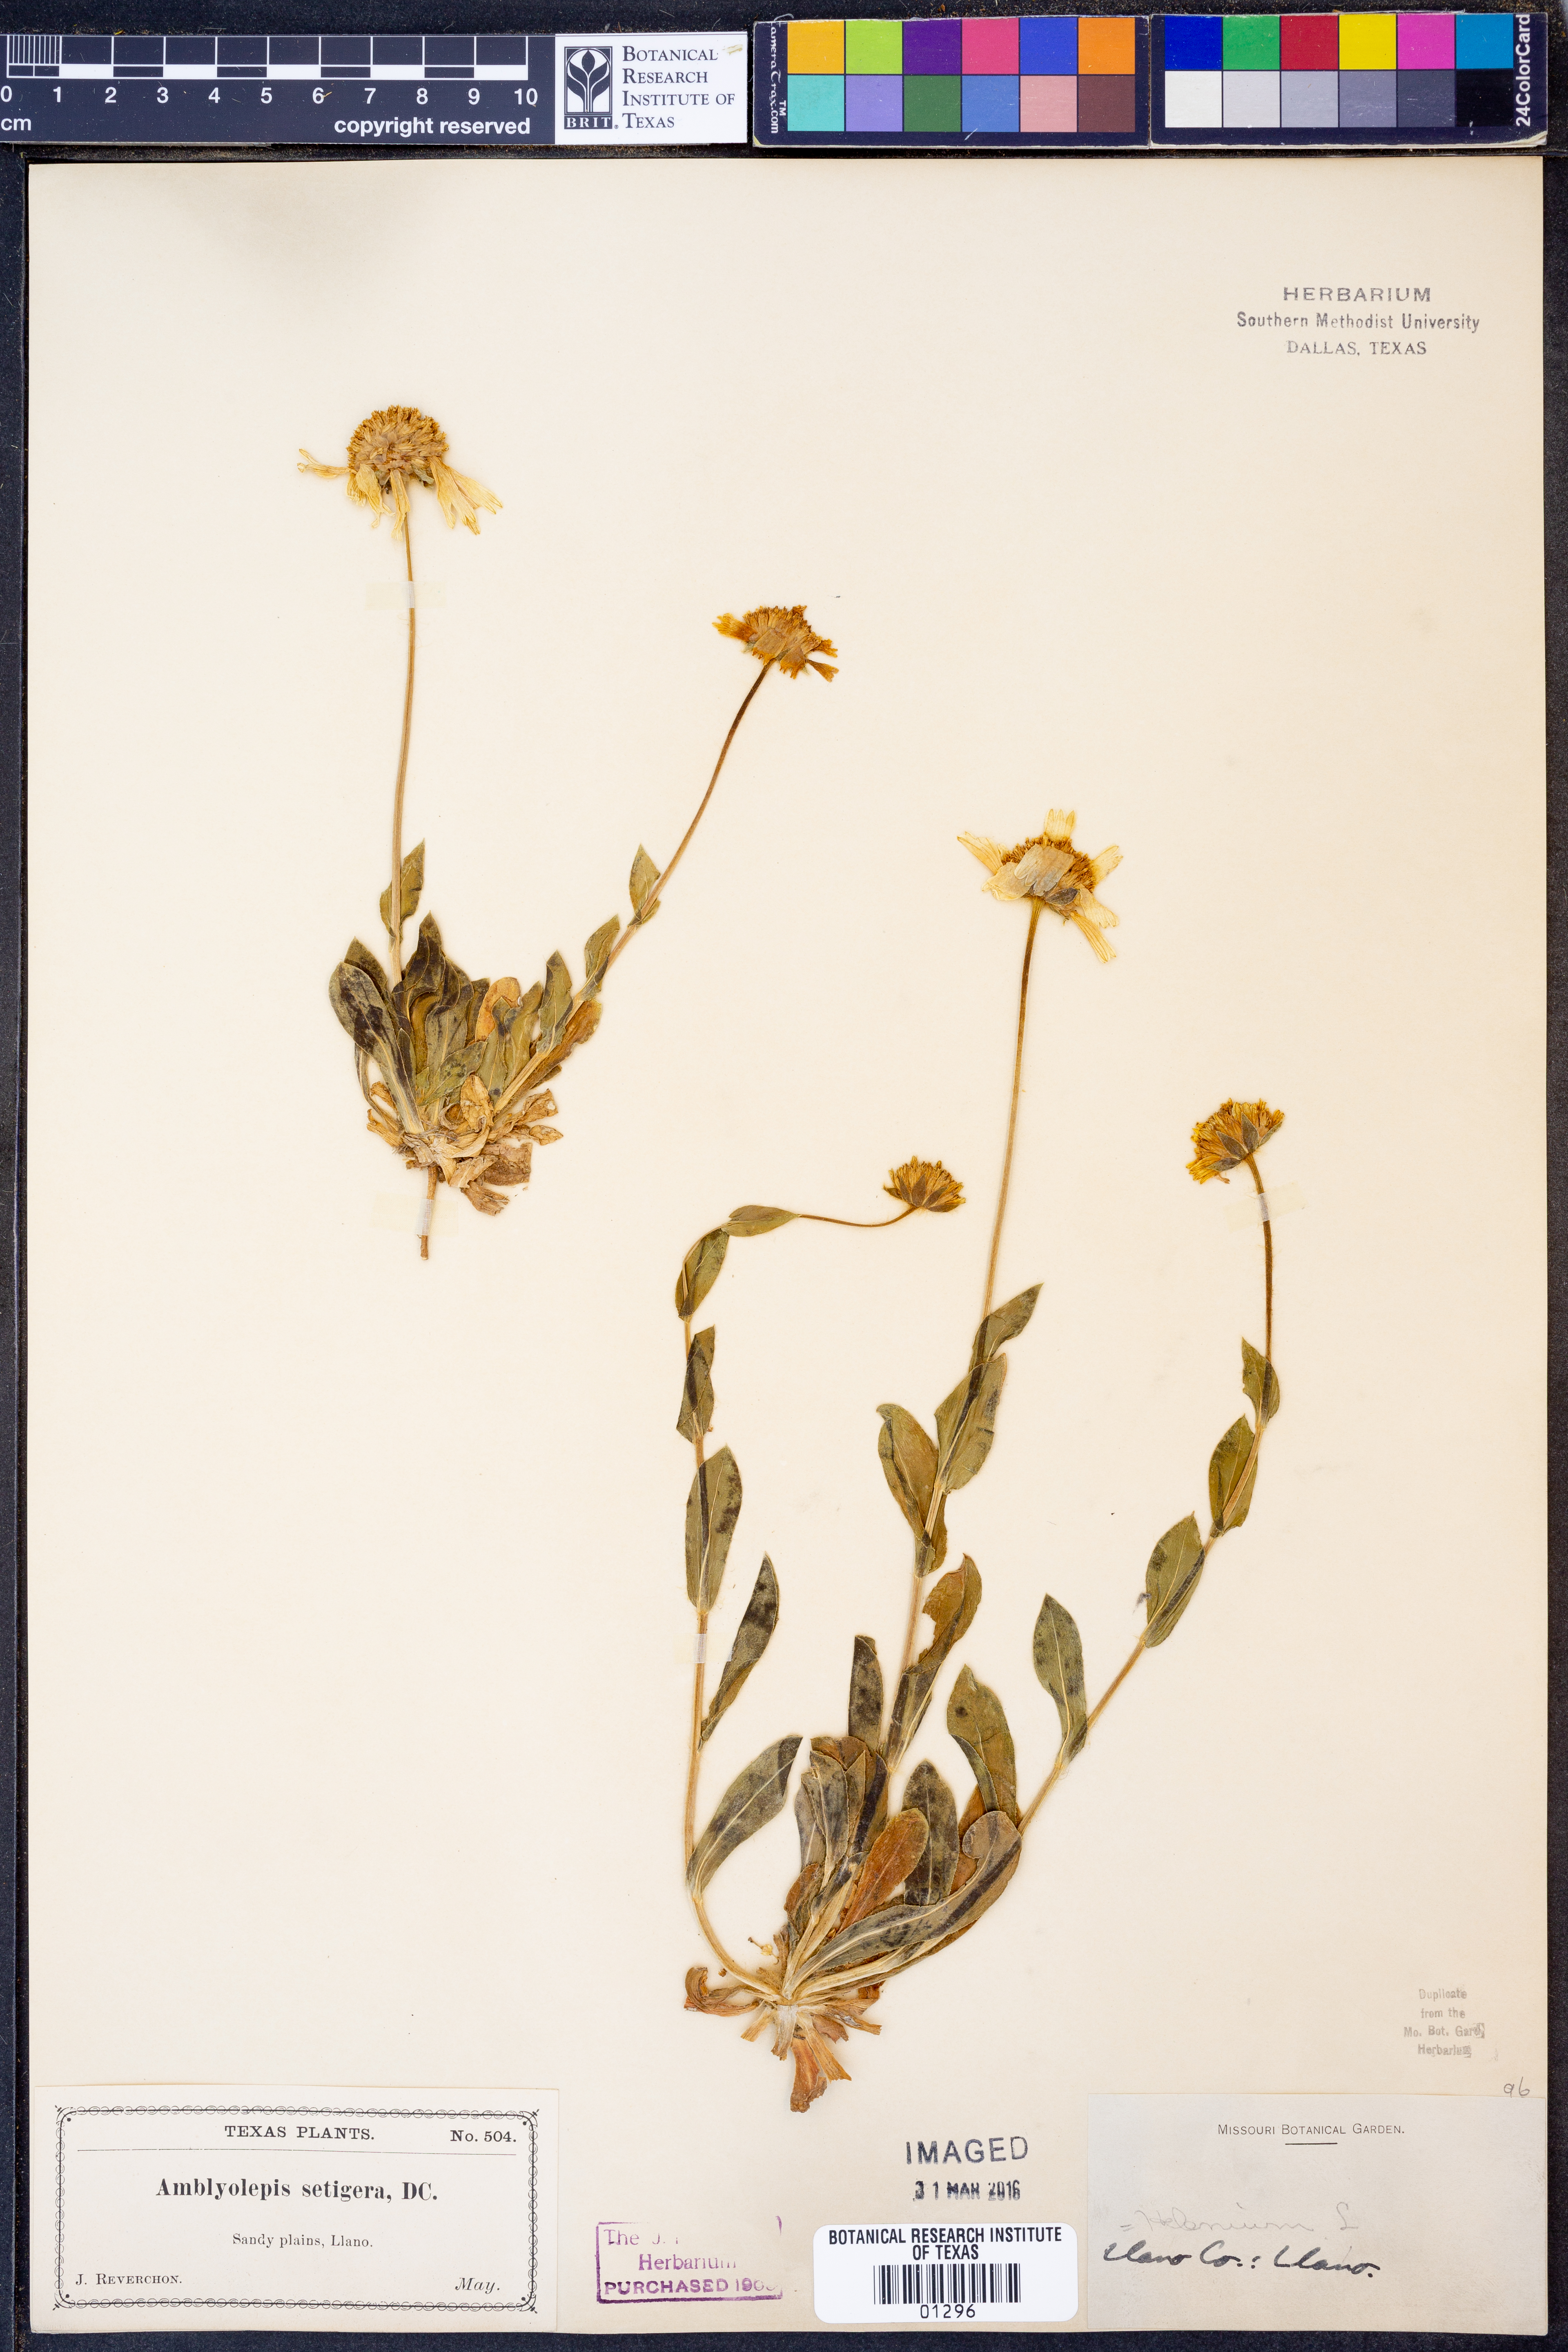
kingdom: Plantae
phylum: Tracheophyta
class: Magnoliopsida
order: Asterales
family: Asteraceae
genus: Amblyolepis
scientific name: Amblyolepis setigera
